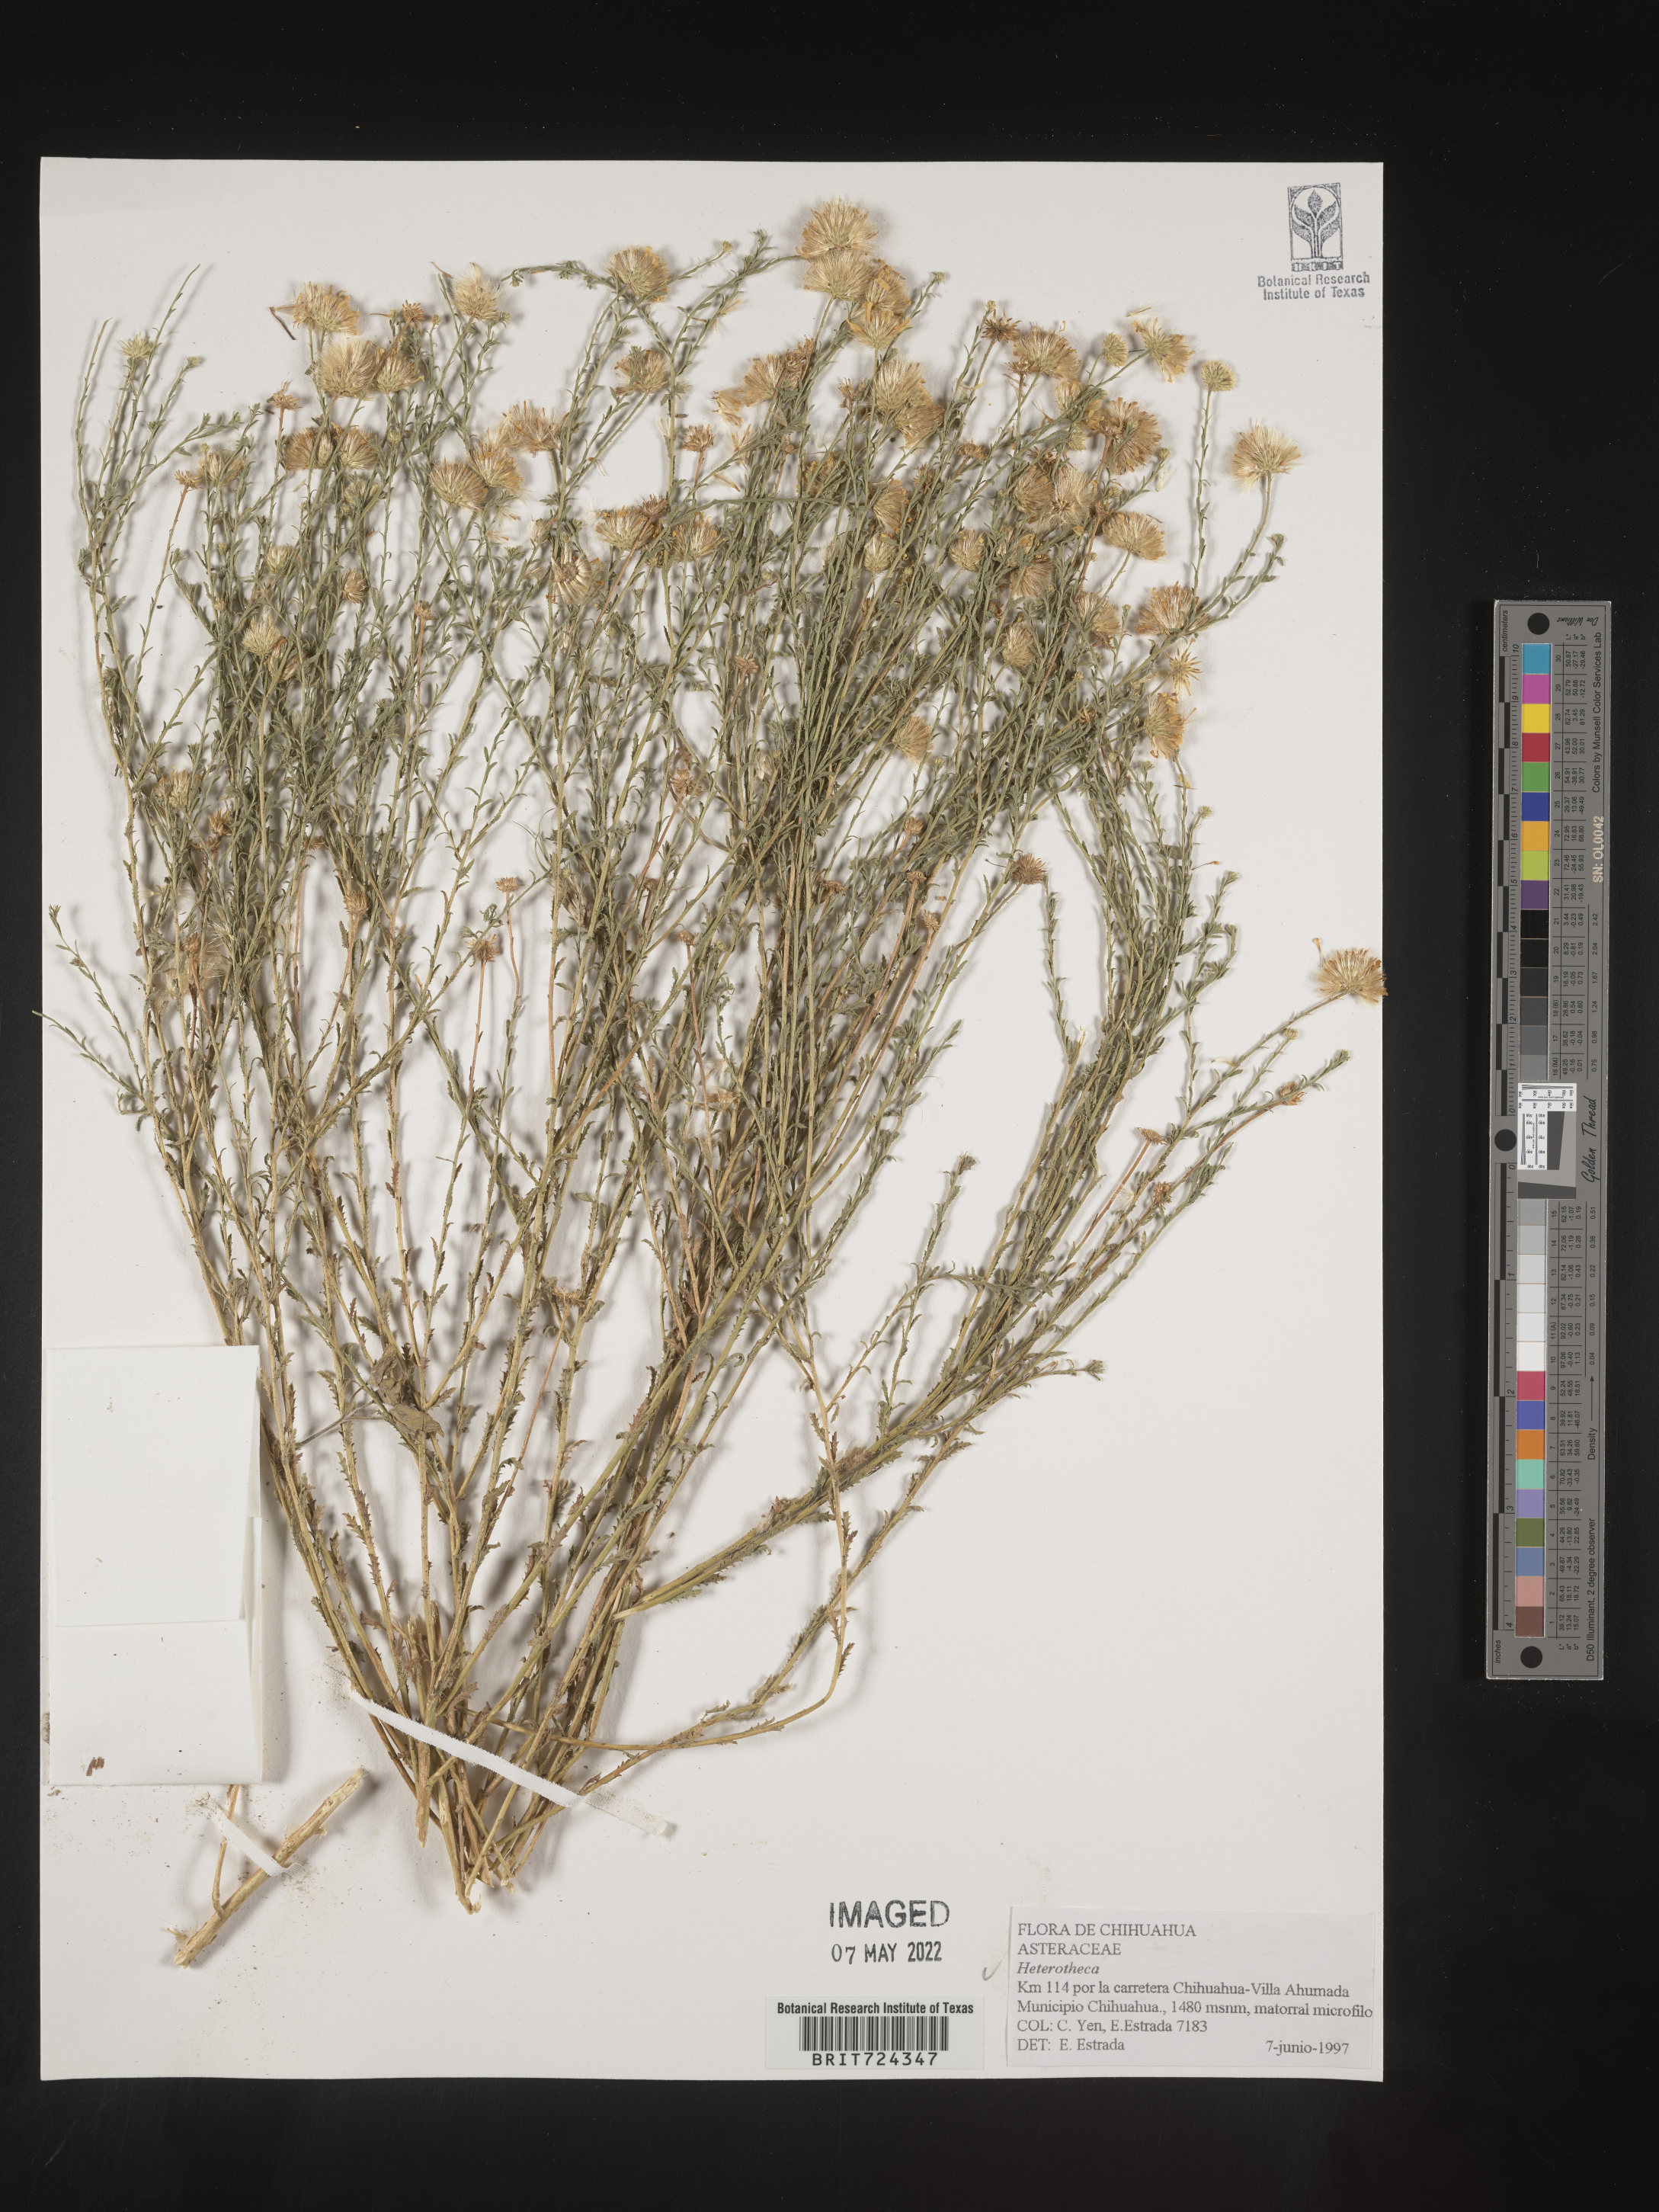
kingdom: Plantae
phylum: Tracheophyta
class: Magnoliopsida
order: Asterales
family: Asteraceae
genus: Heterotheca
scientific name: Heterotheca
